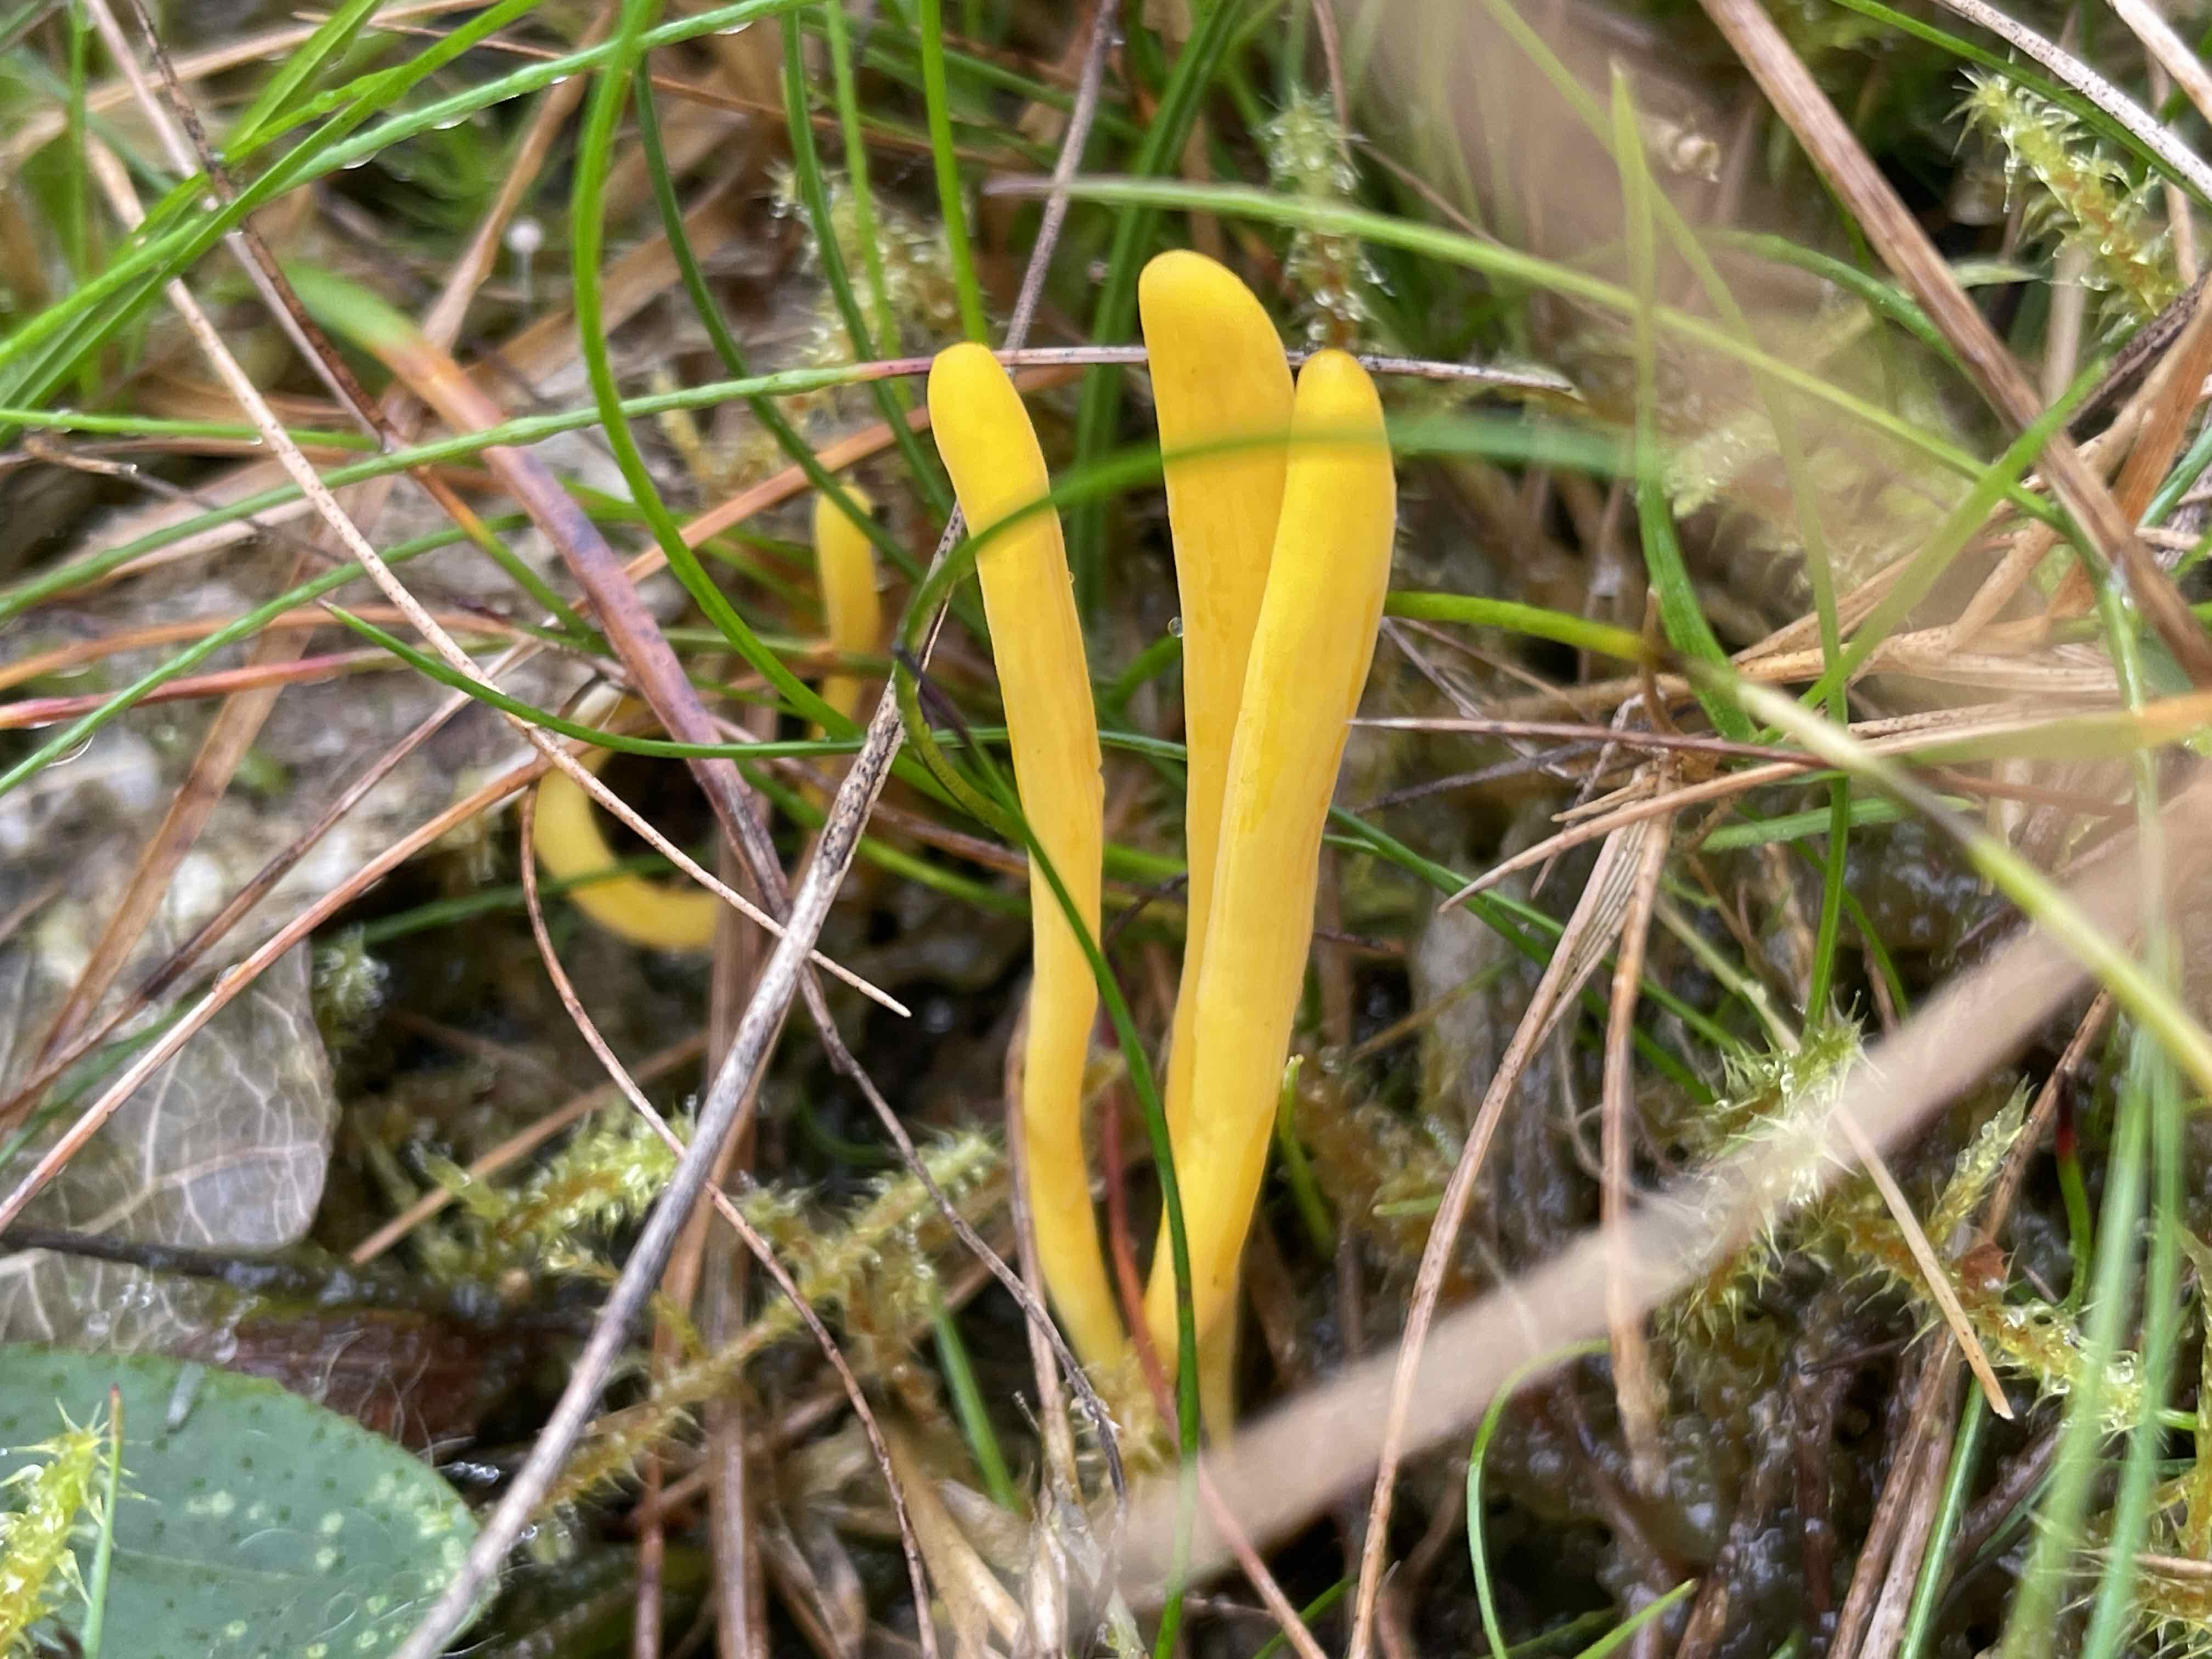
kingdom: Fungi
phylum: Basidiomycota
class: Agaricomycetes
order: Agaricales
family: Clavariaceae
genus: Clavulinopsis
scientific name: Clavulinopsis
